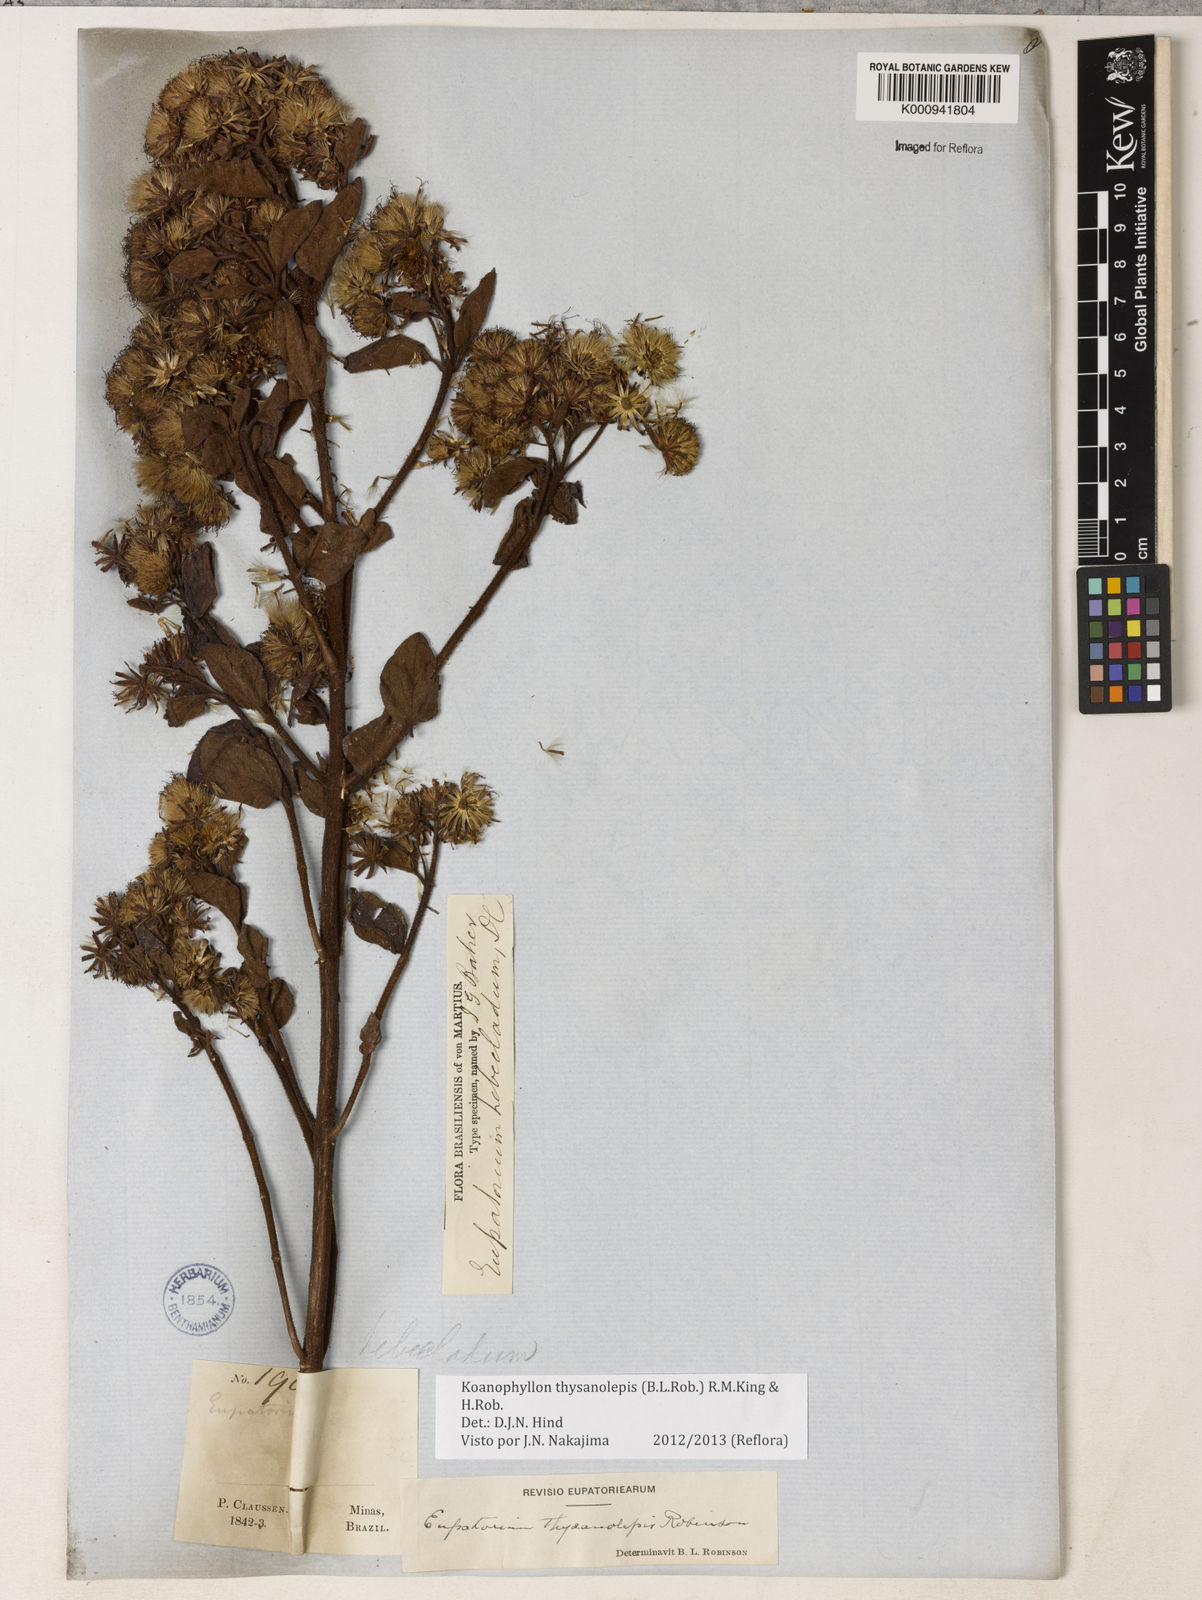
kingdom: Plantae
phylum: Tracheophyta
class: Magnoliopsida
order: Asterales
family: Asteraceae
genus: Koanophyllon
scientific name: Koanophyllon thysanolepis
